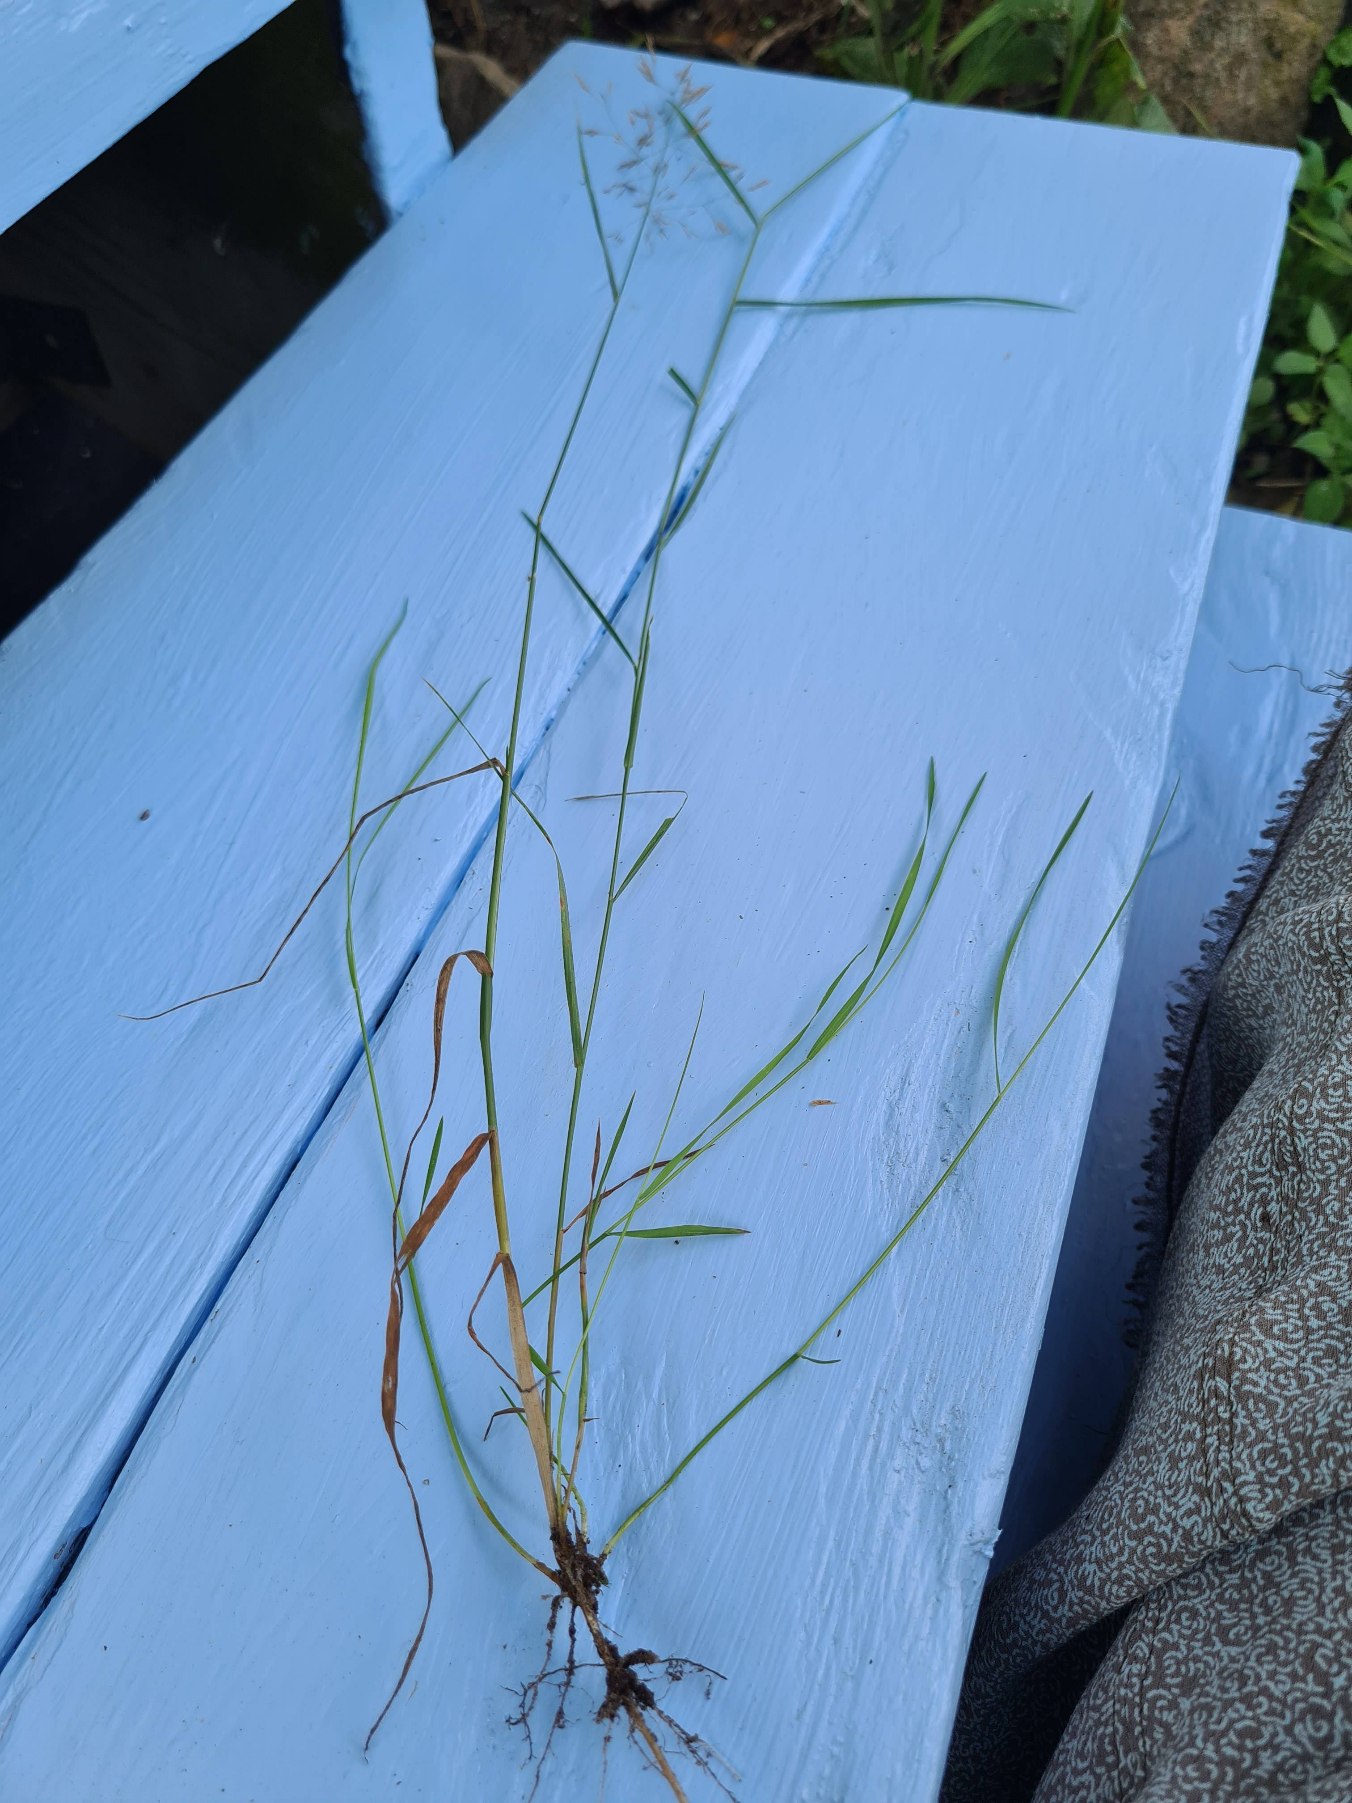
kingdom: Plantae
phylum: Tracheophyta
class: Liliopsida
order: Poales
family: Poaceae
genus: Agrostis
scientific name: Agrostis gigantea
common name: Stortoppet hvene
